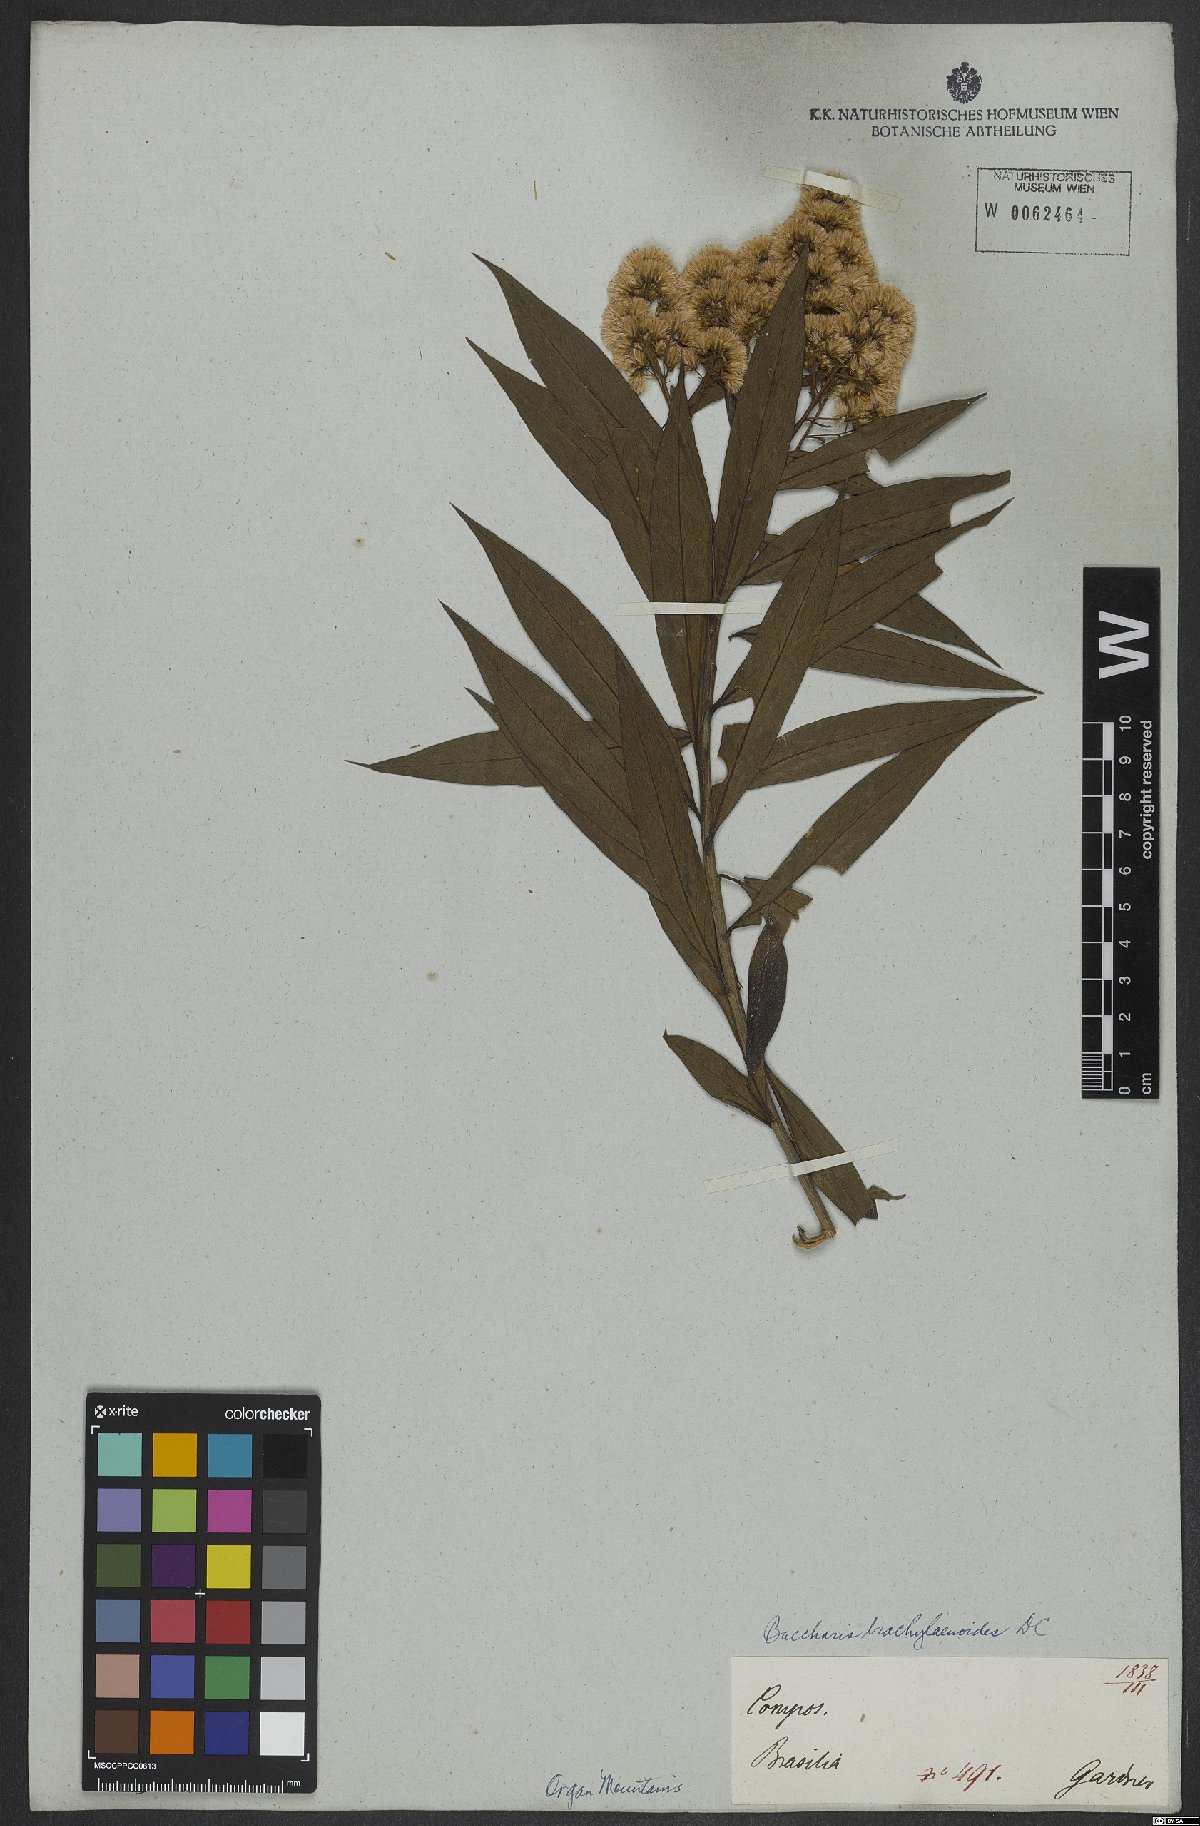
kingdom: Plantae
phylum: Tracheophyta
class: Magnoliopsida
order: Asterales
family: Asteraceae
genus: Baccharis
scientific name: Baccharis oblongifolia
